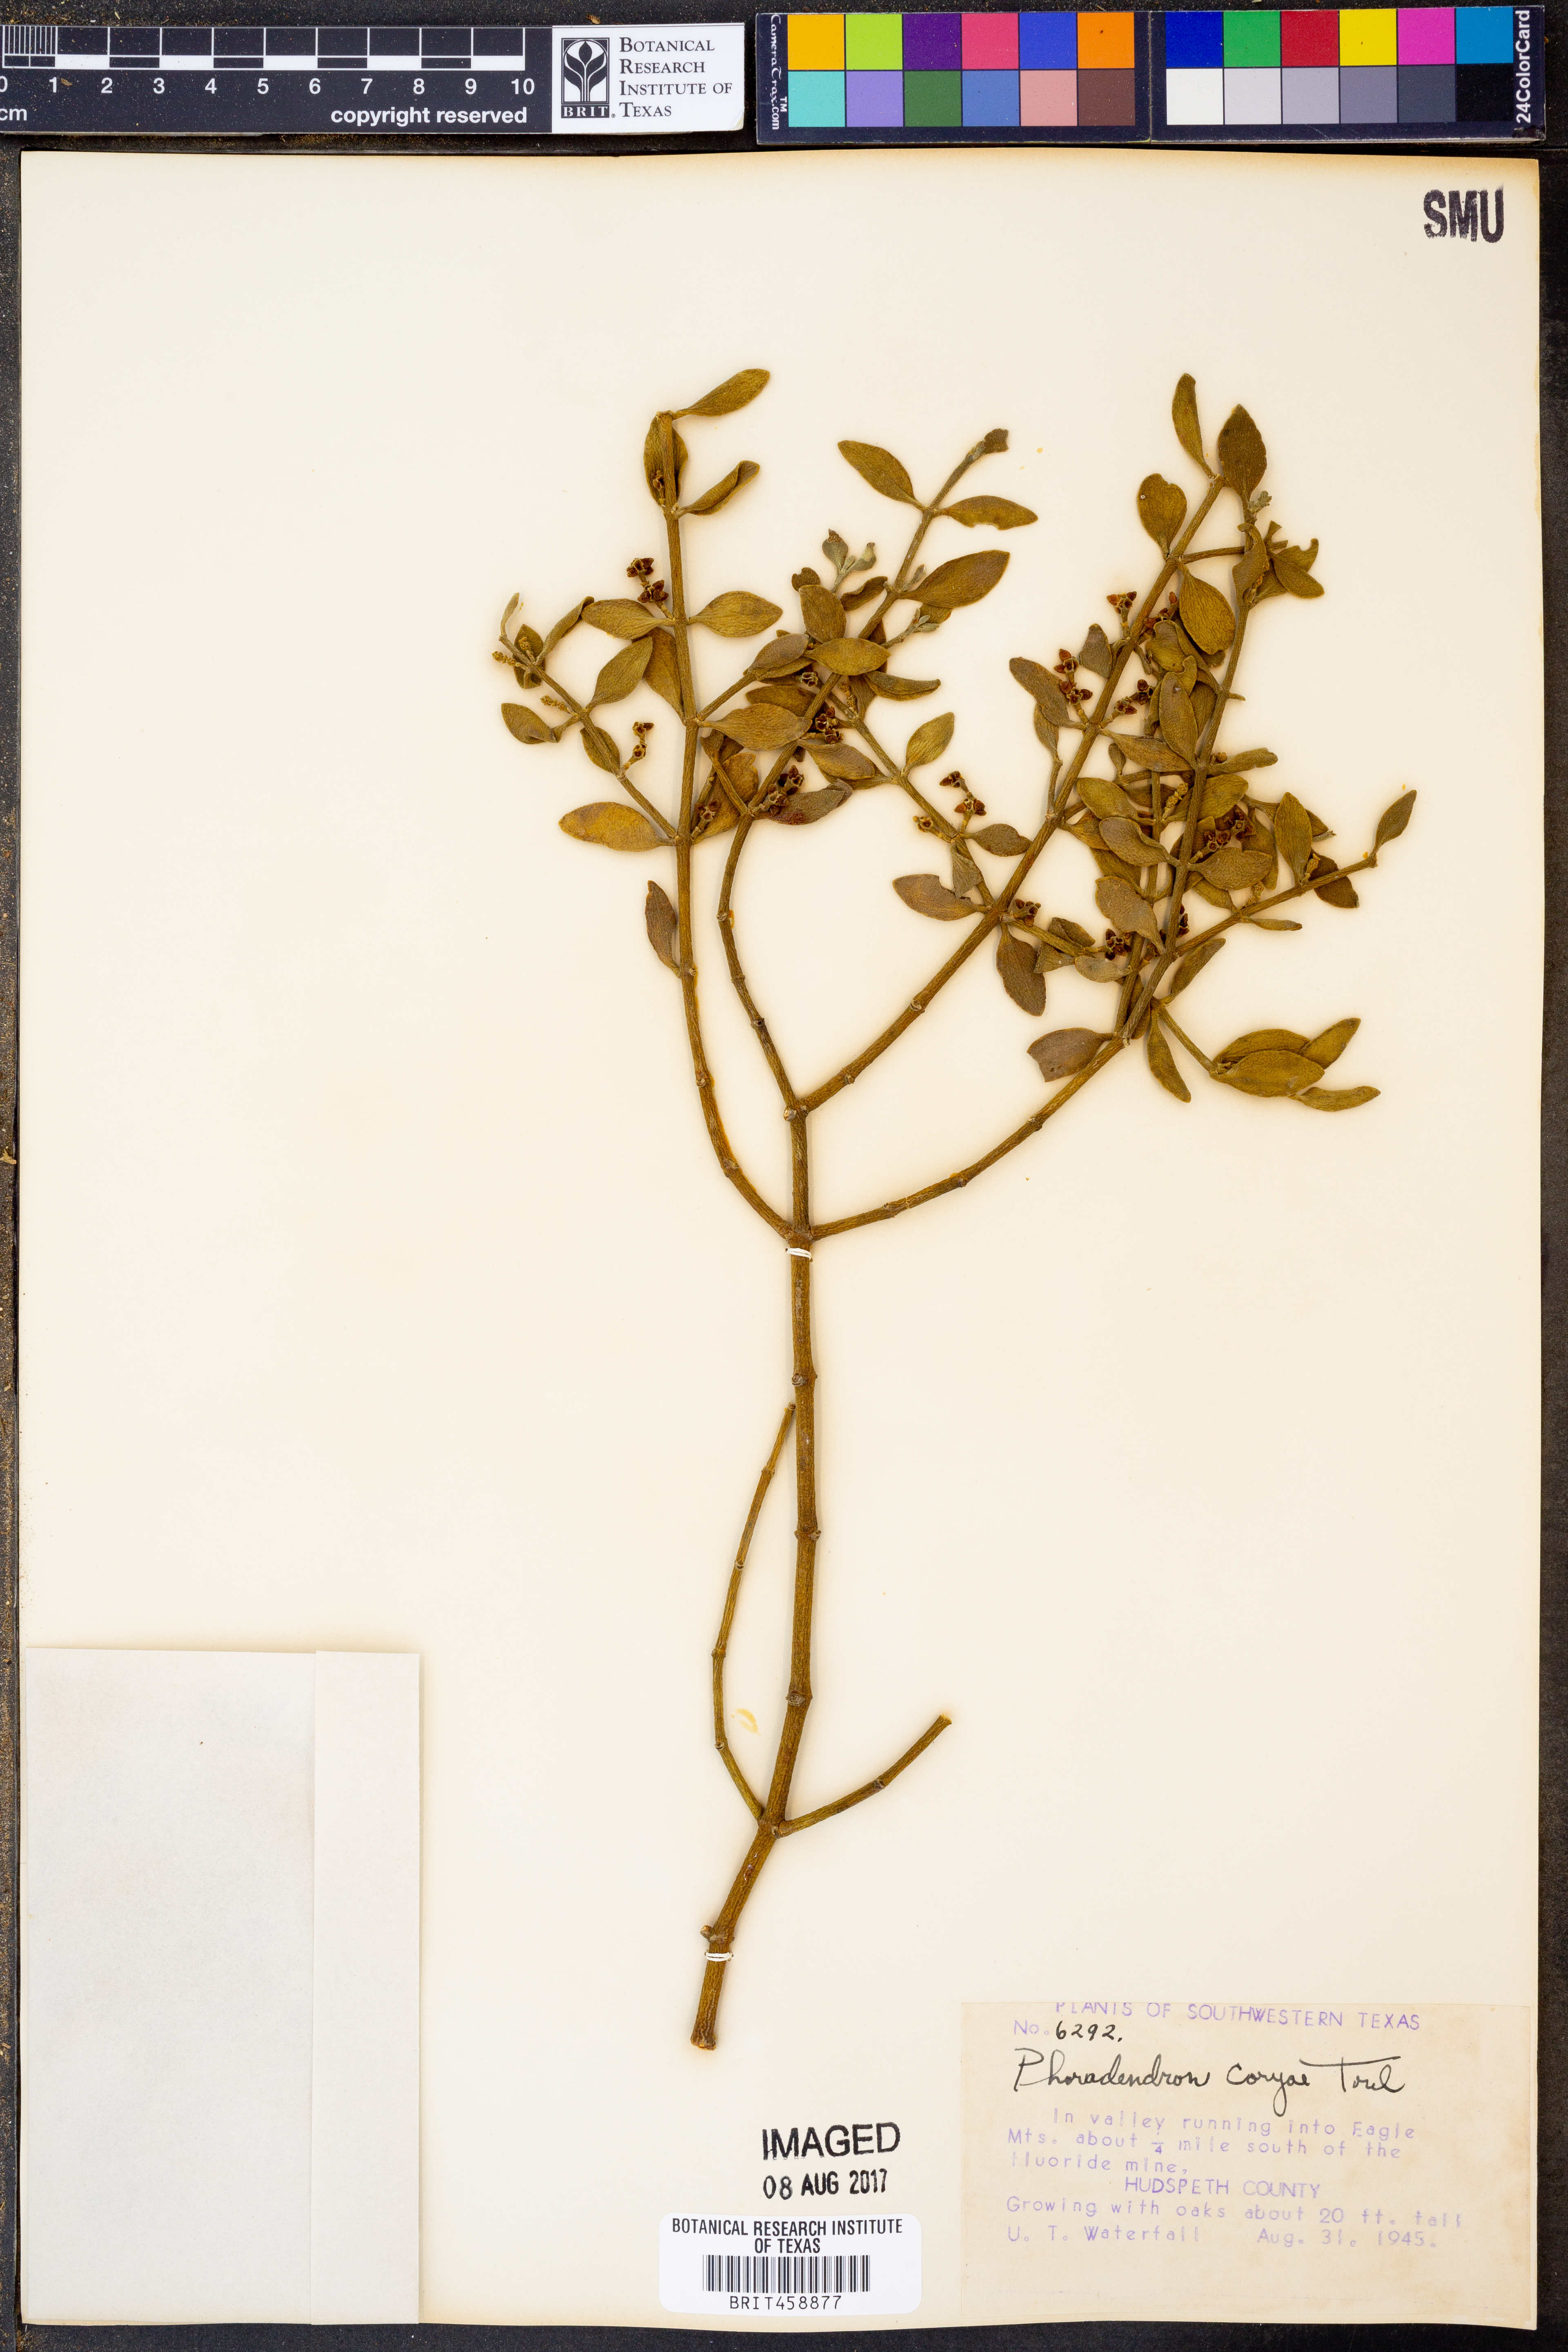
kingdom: Plantae
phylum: Tracheophyta
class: Magnoliopsida
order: Santalales
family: Viscaceae
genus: Phoradendron
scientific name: Phoradendron coryae
